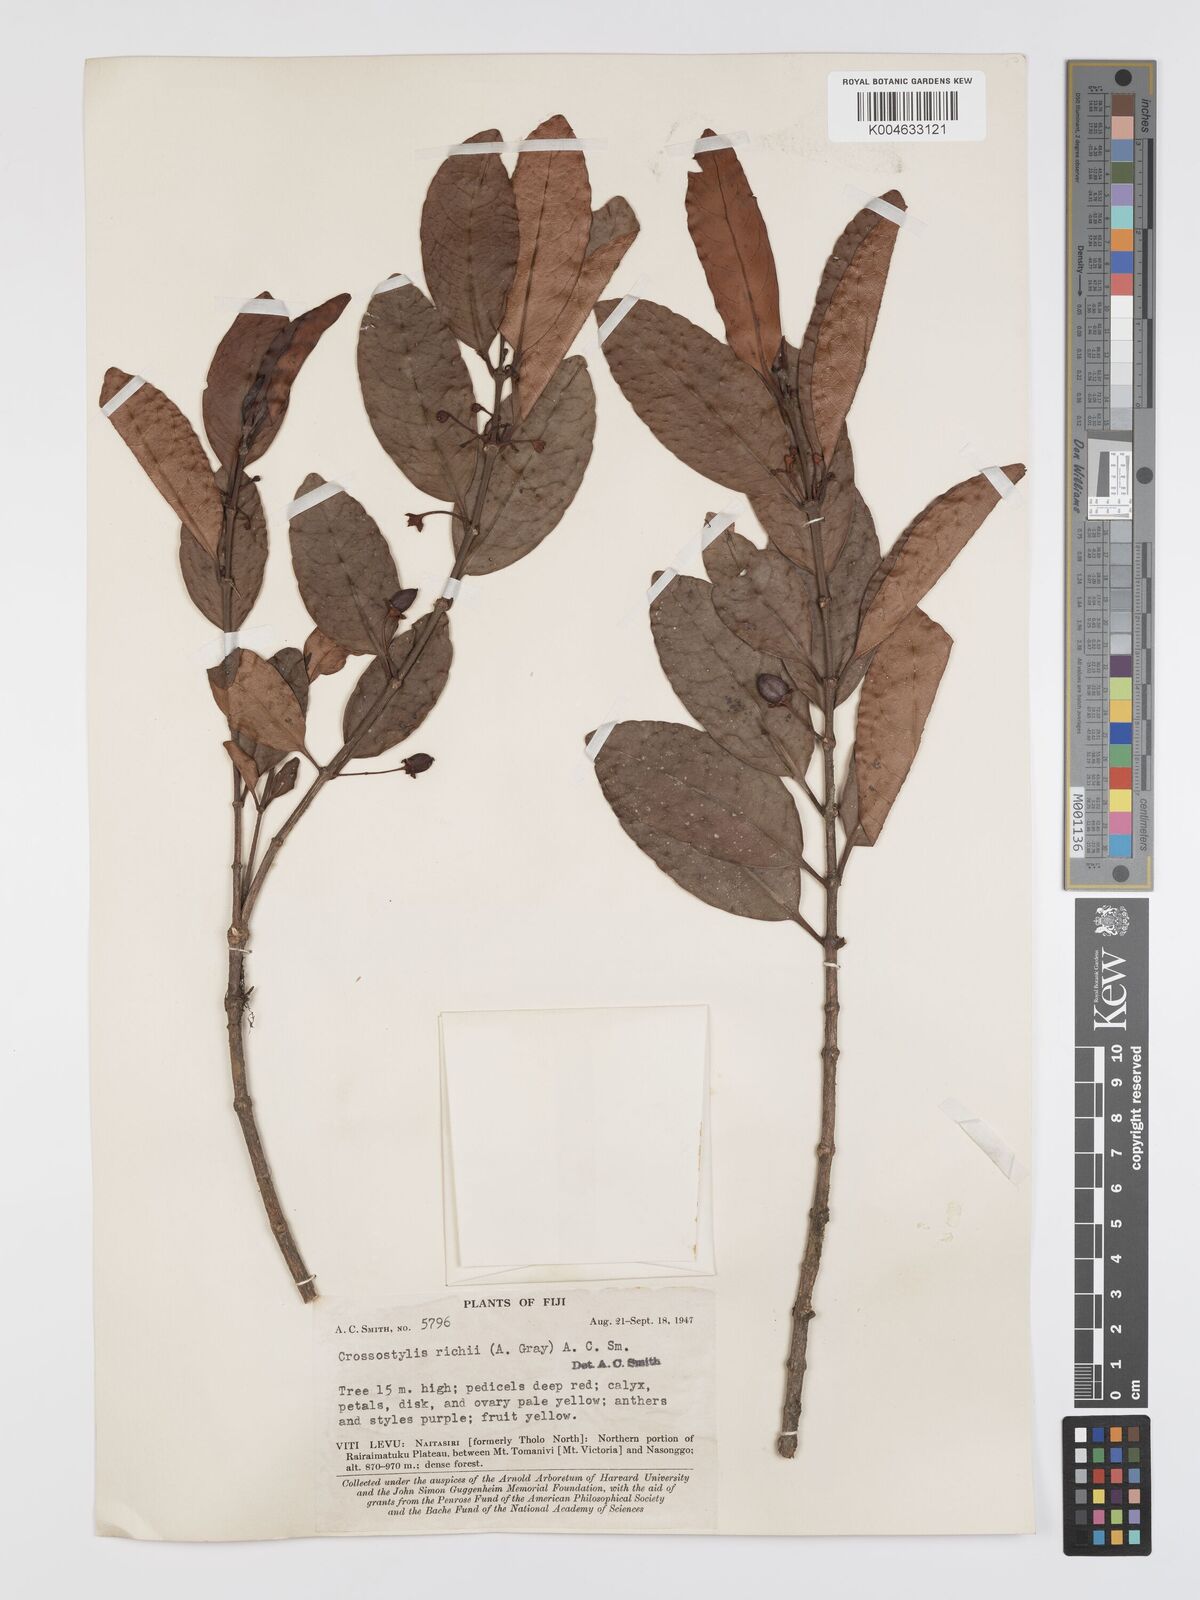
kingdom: Plantae
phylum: Tracheophyta
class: Magnoliopsida
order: Malpighiales
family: Rhizophoraceae
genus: Crossostylis
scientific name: Crossostylis richii
